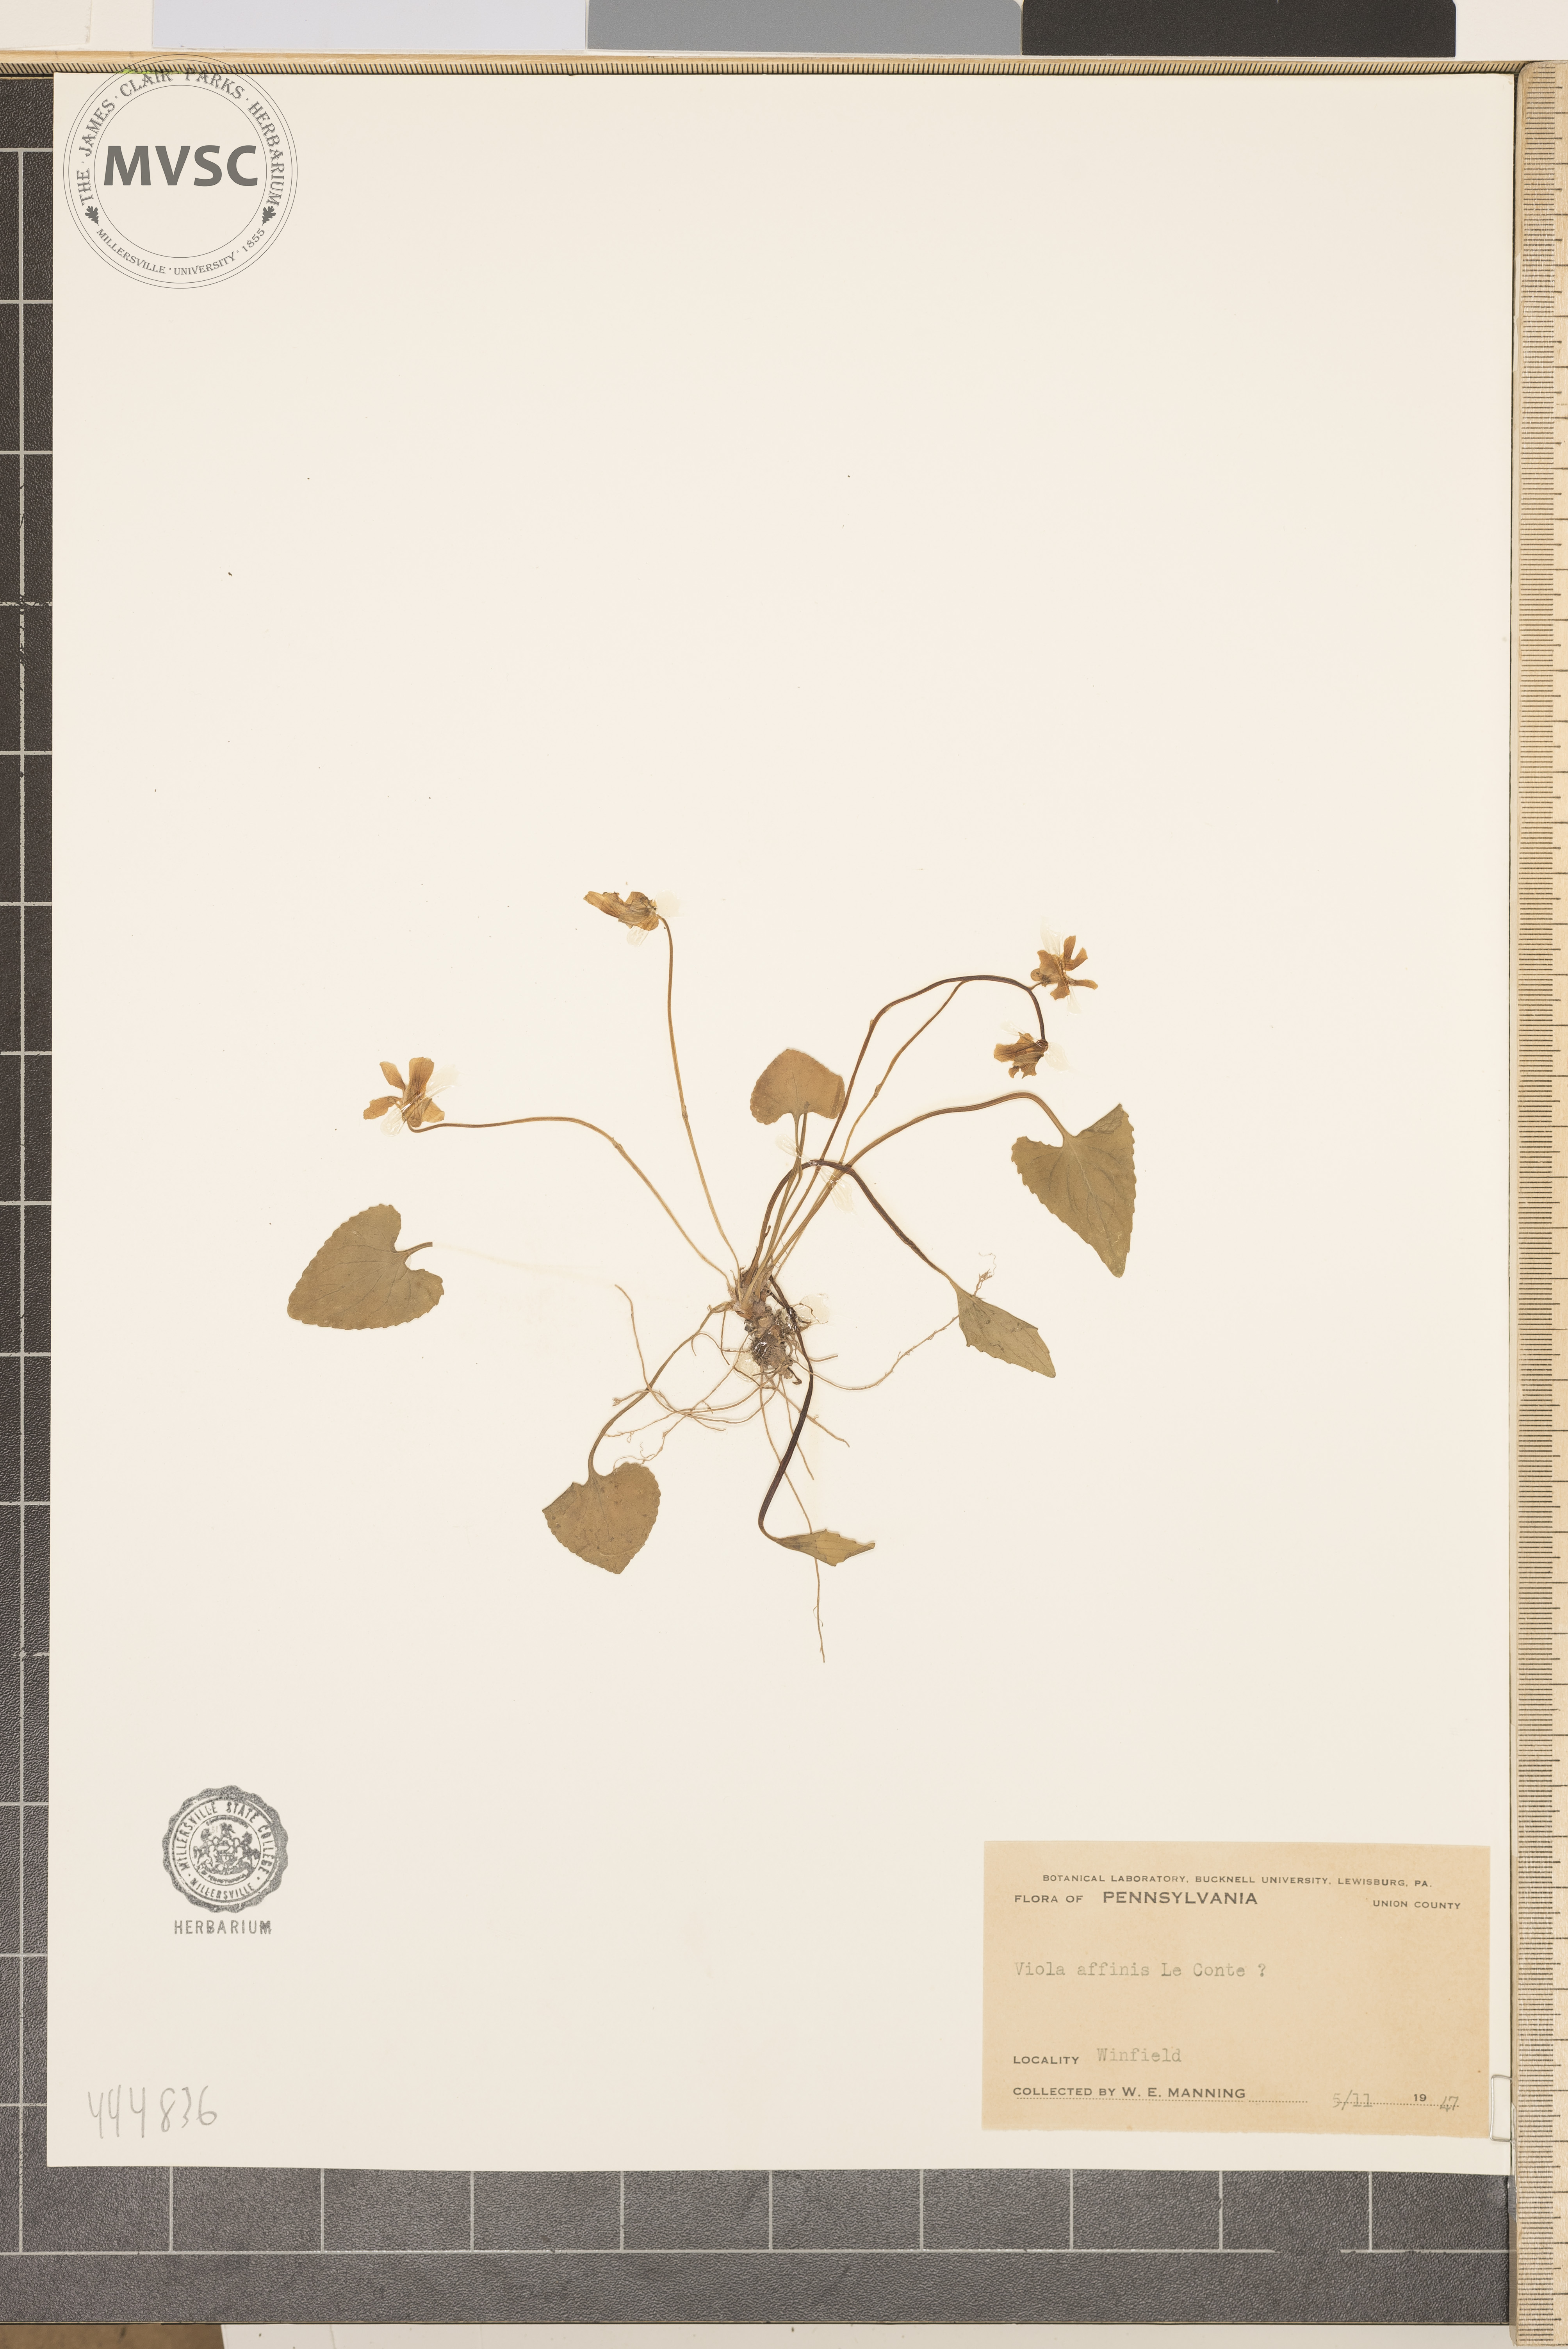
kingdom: Plantae
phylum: Tracheophyta
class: Magnoliopsida
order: Malpighiales
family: Violaceae
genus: Viola
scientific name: Viola affinis
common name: Leconte's violet
